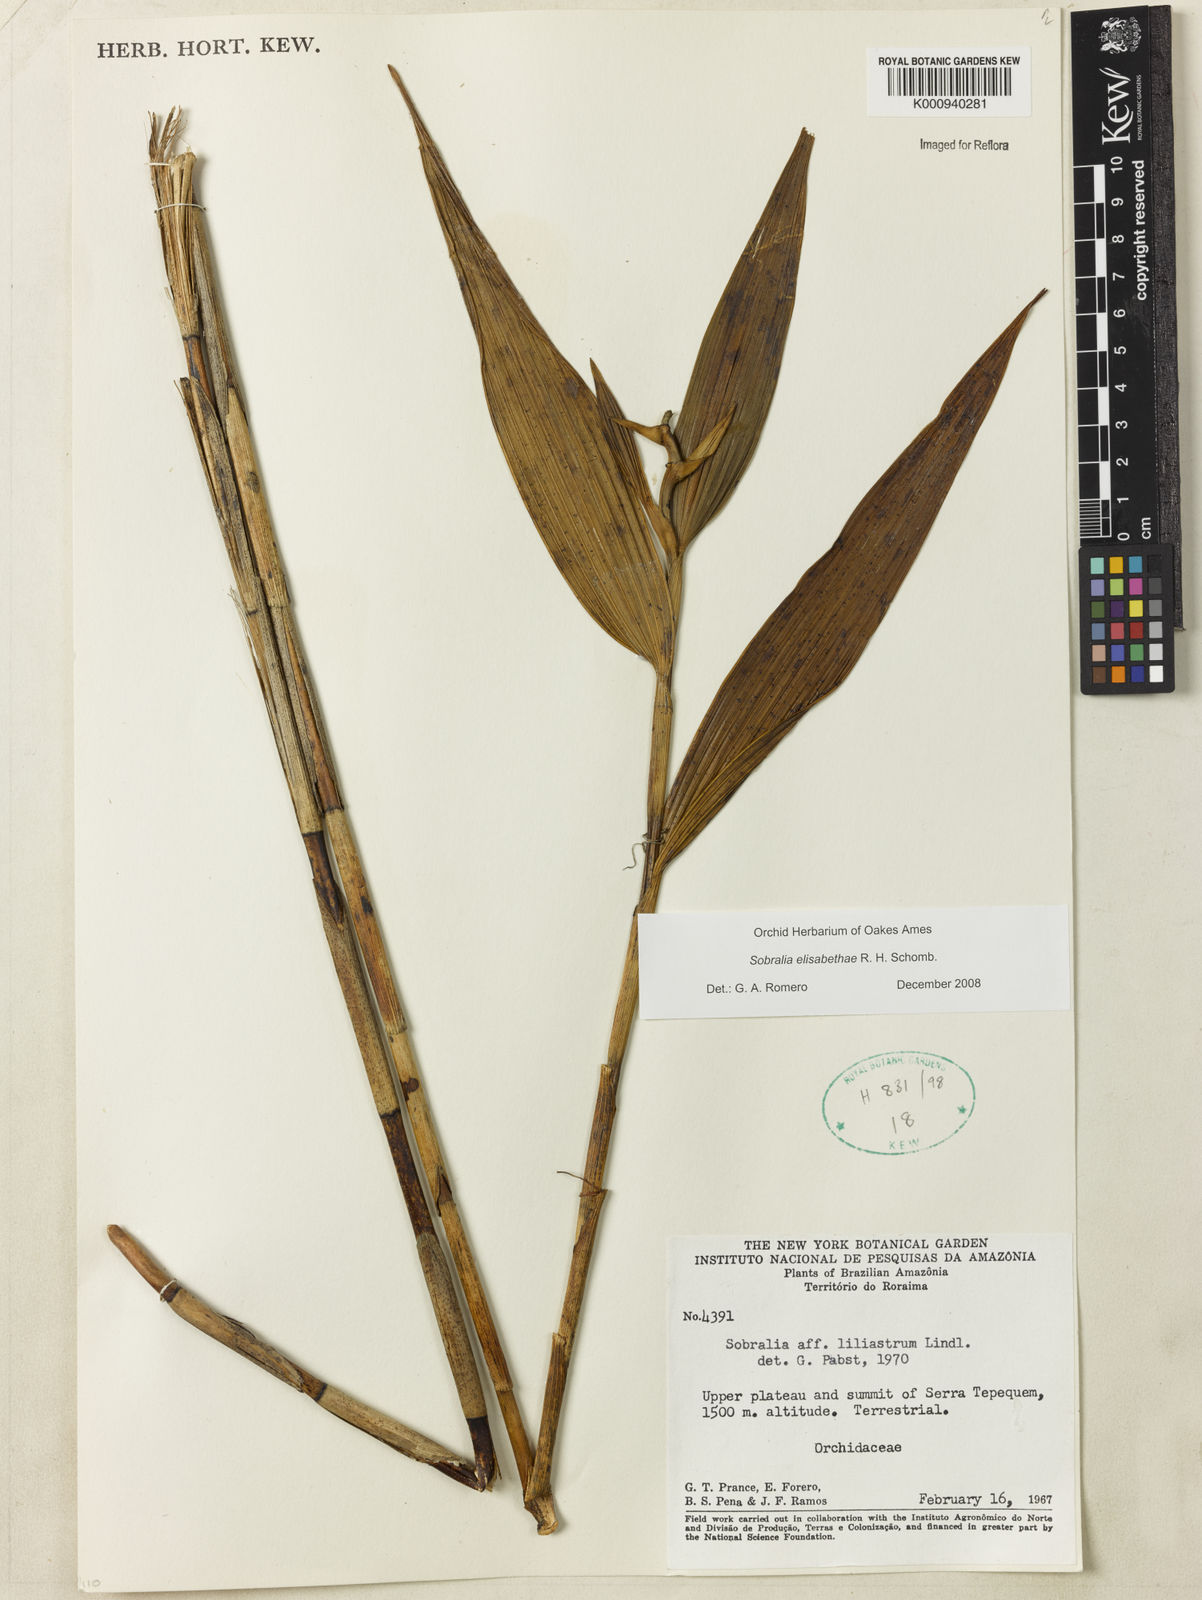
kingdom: Plantae
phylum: Tracheophyta
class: Liliopsida
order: Asparagales
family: Orchidaceae
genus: Sobralia
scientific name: Sobralia elisabethae
